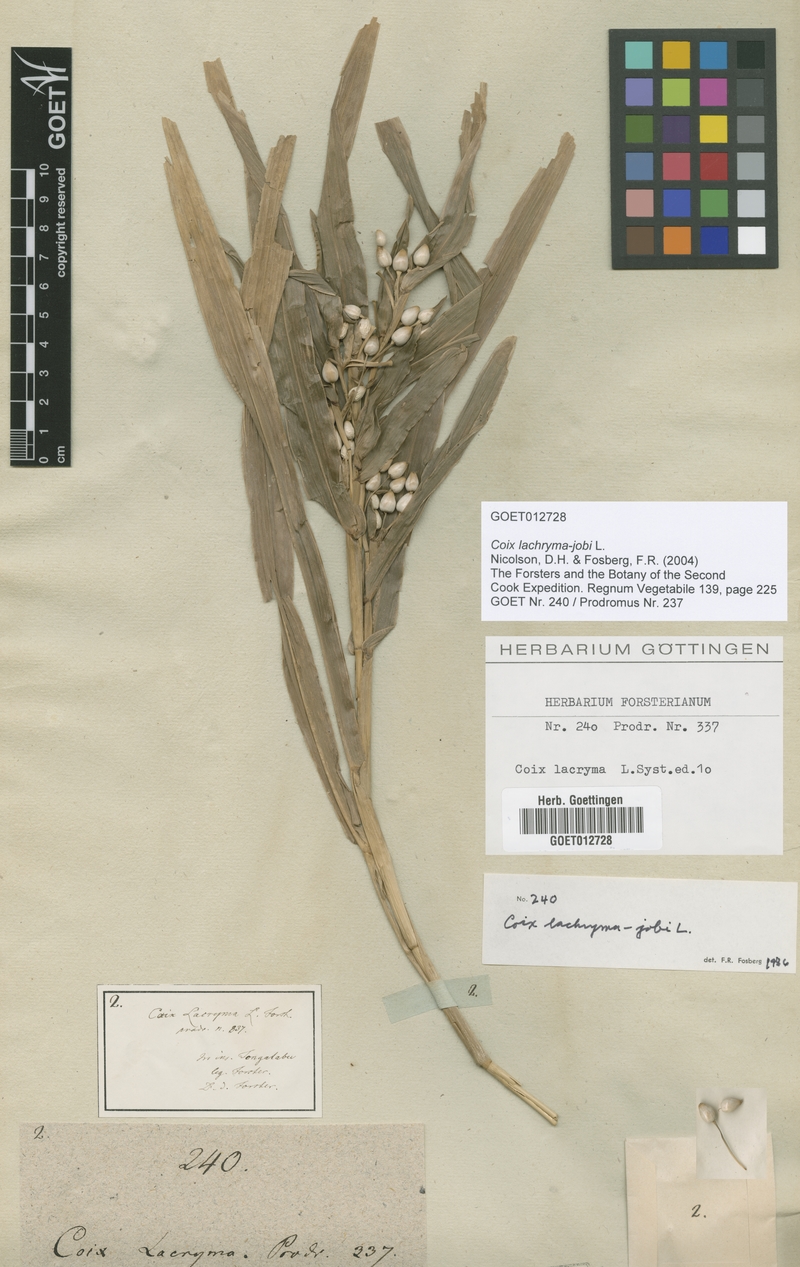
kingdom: Plantae
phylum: Tracheophyta
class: Liliopsida
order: Poales
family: Poaceae
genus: Coix
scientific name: Coix lacryma-jobi
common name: Job's tears
